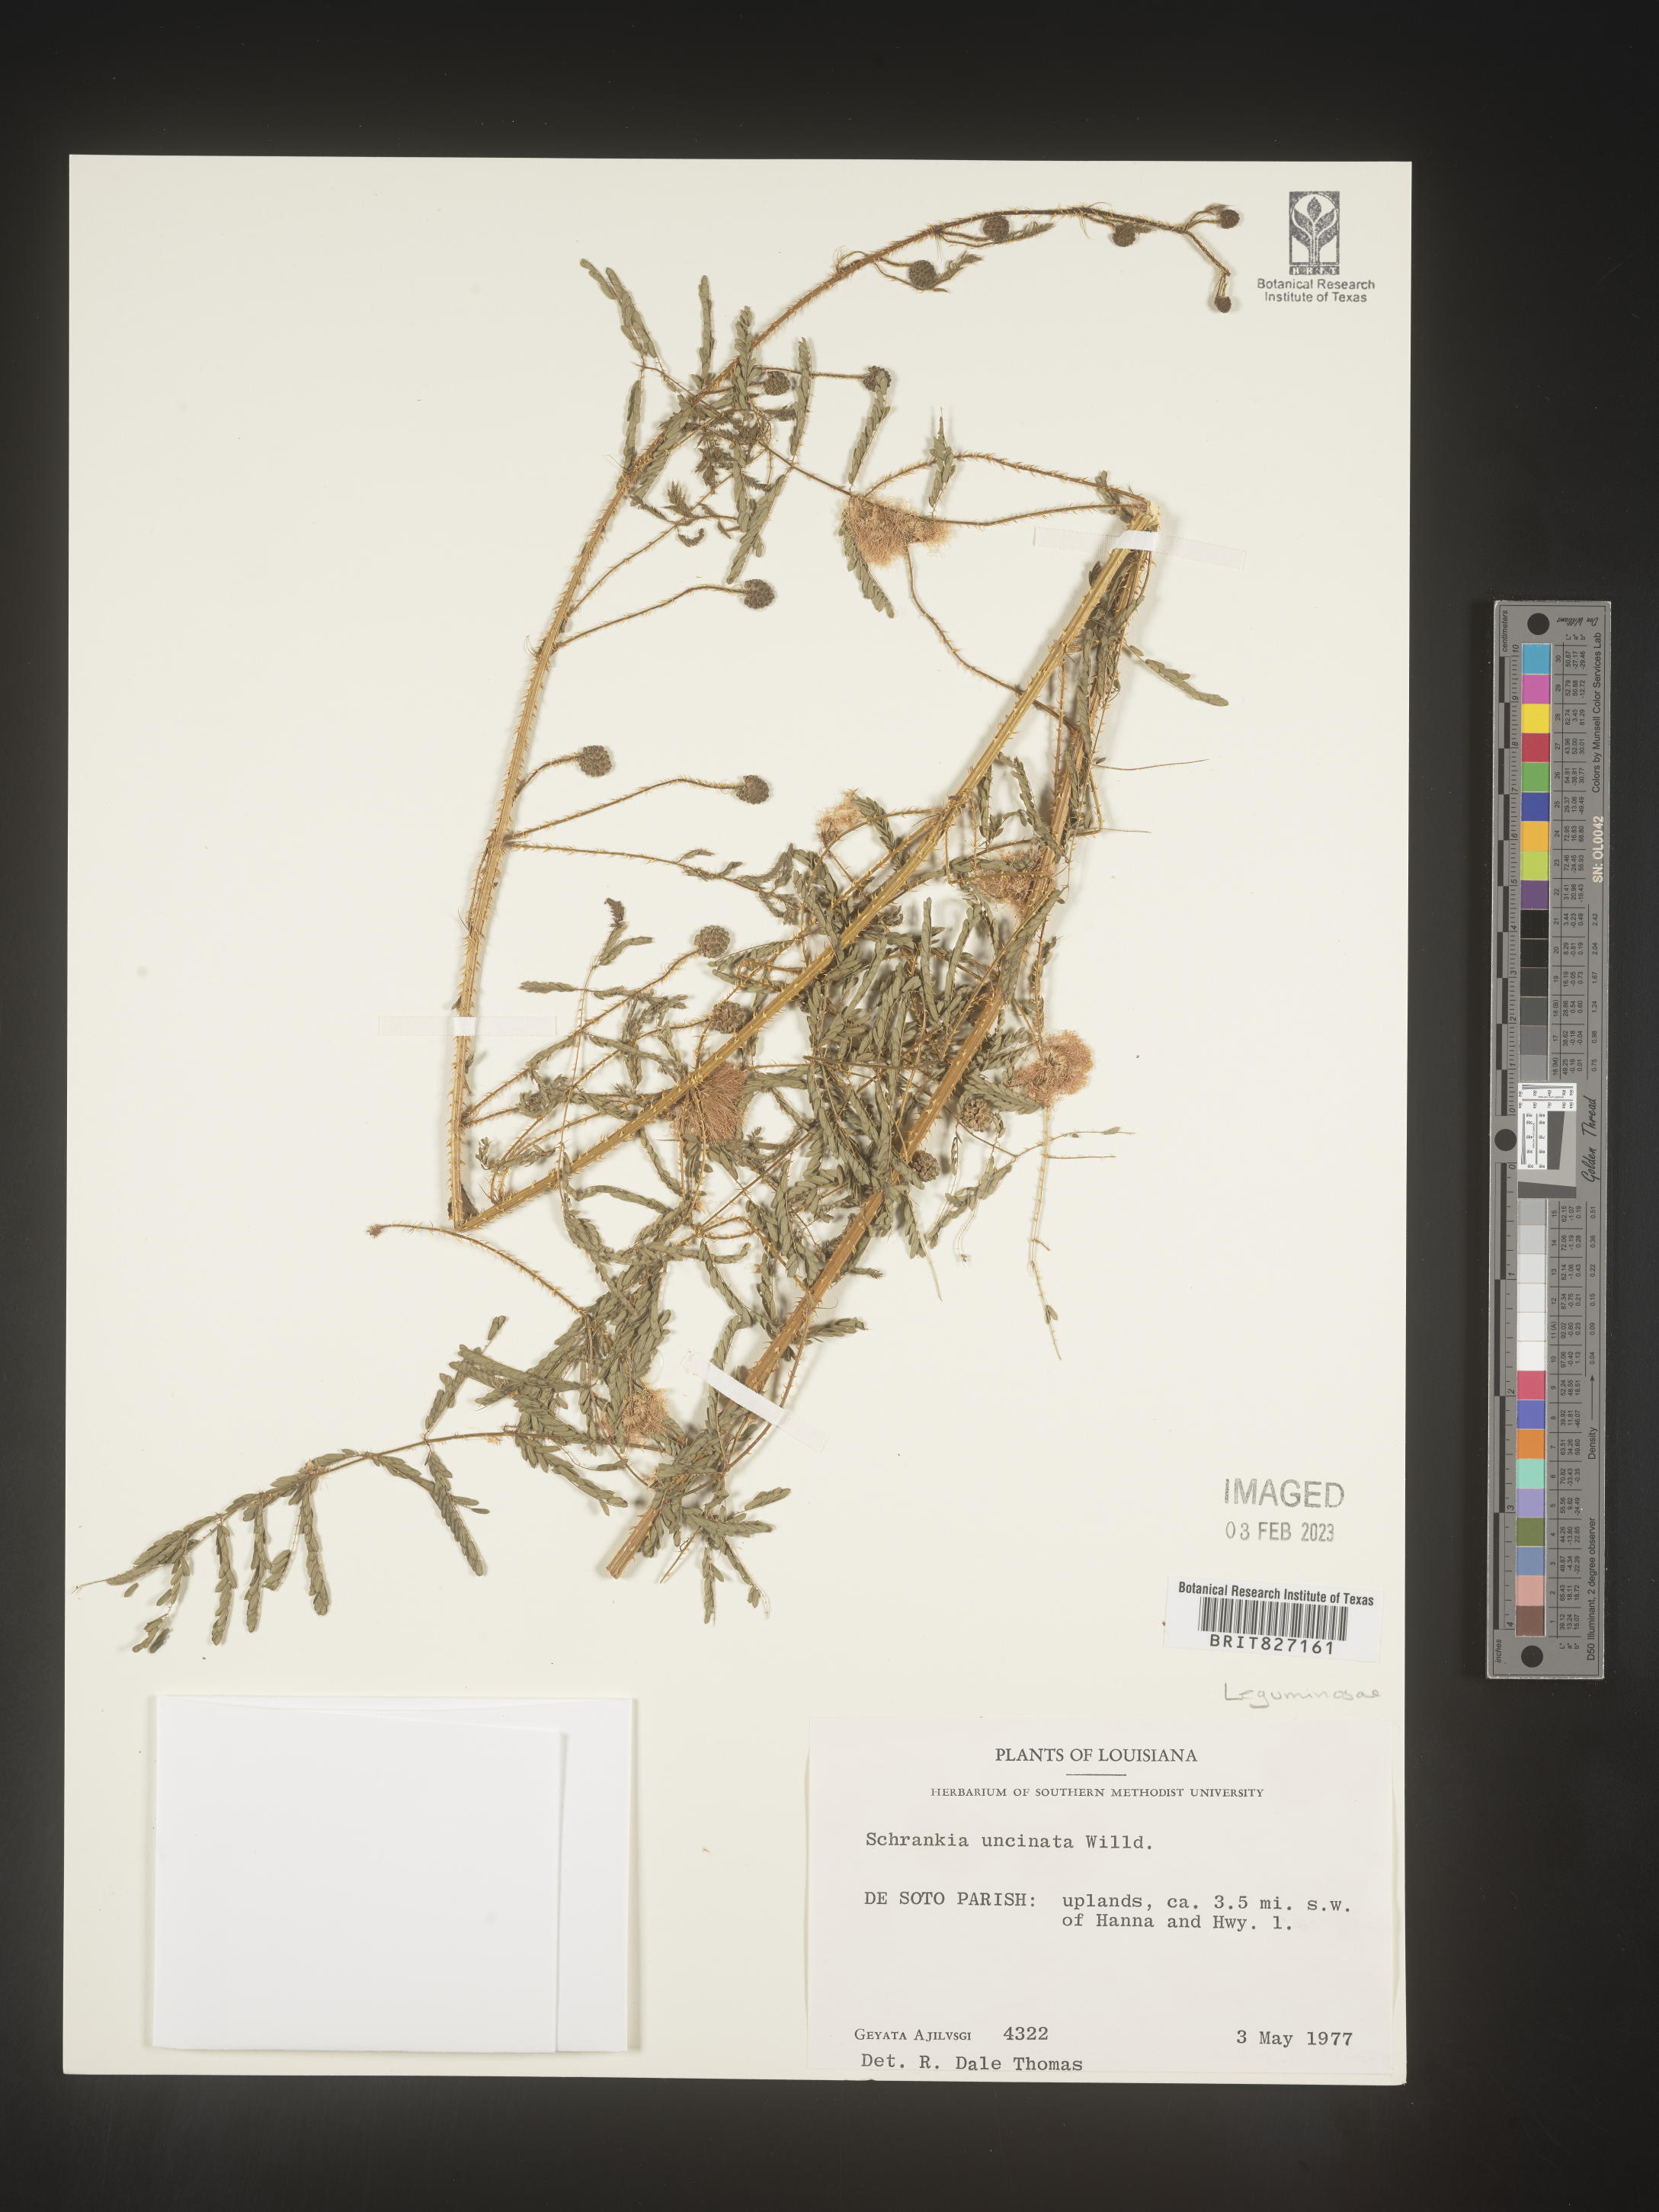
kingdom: Plantae
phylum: Tracheophyta
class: Magnoliopsida
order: Fabales
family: Fabaceae
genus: Mimosa
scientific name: Mimosa quadrivalvis
